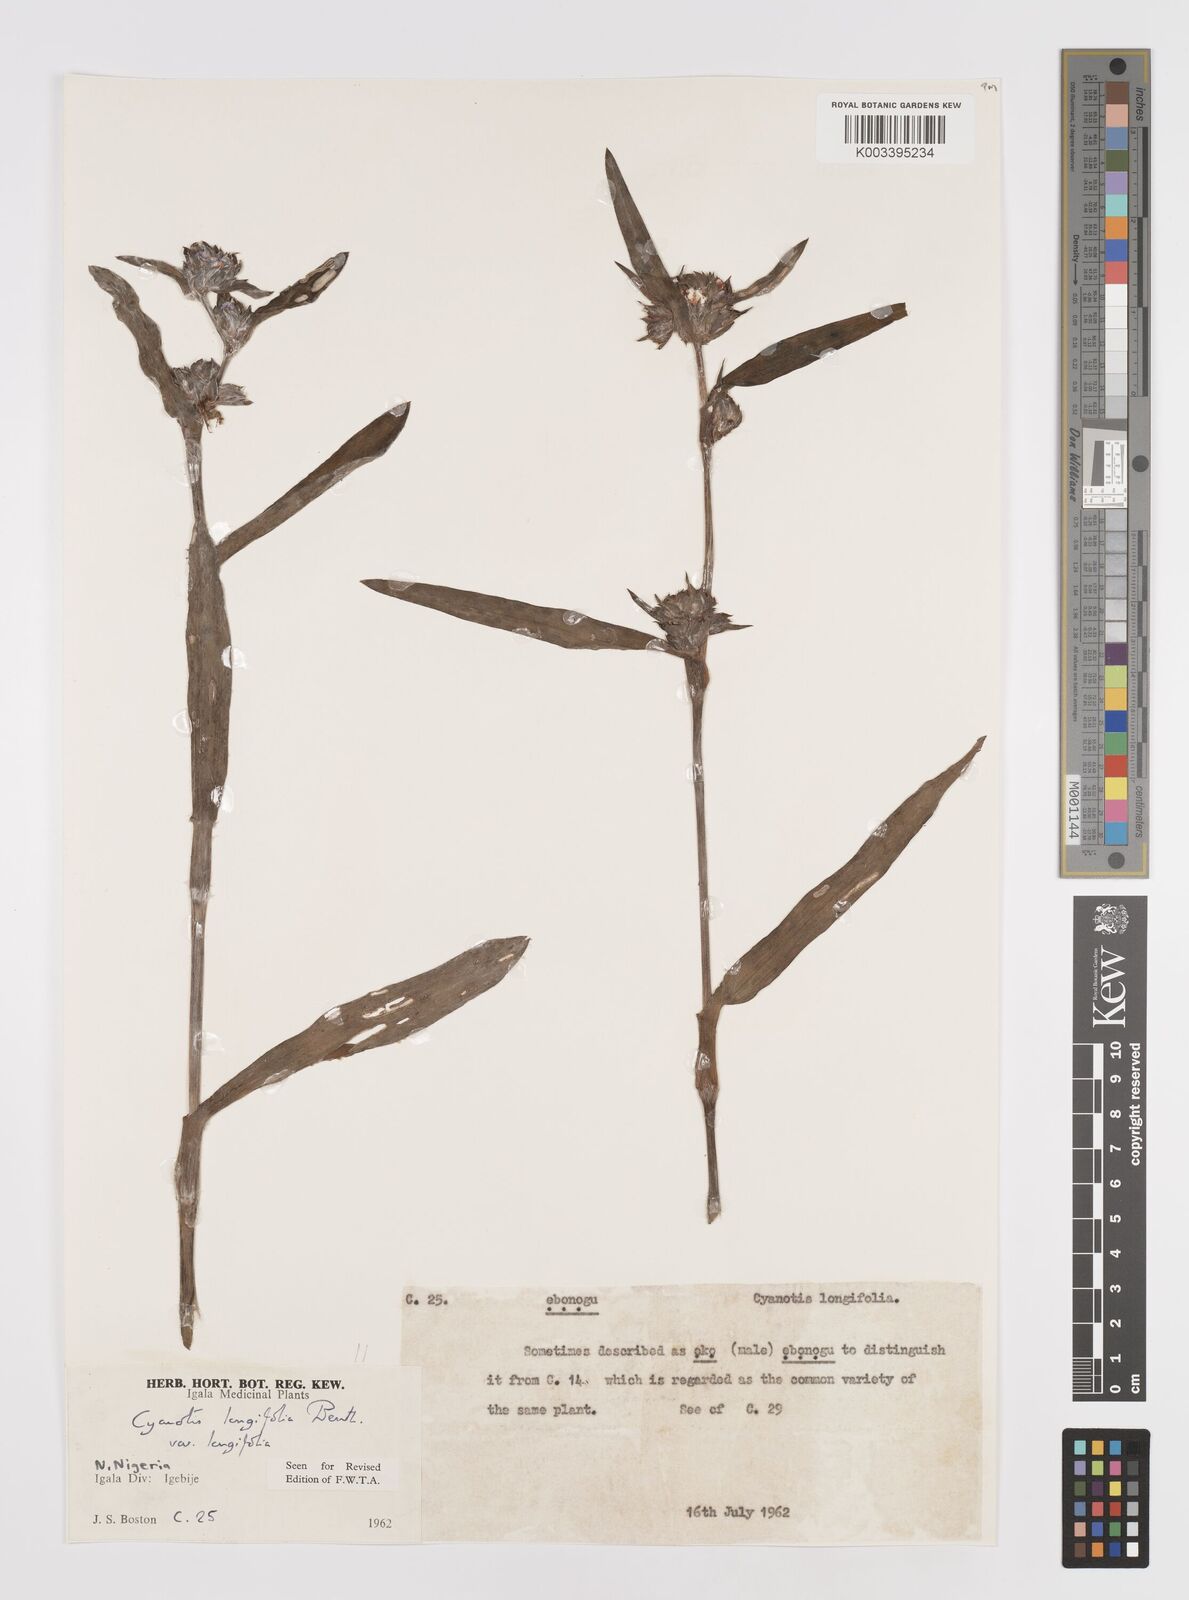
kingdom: Plantae
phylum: Tracheophyta
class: Liliopsida
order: Commelinales
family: Commelinaceae
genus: Cyanotis
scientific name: Cyanotis
